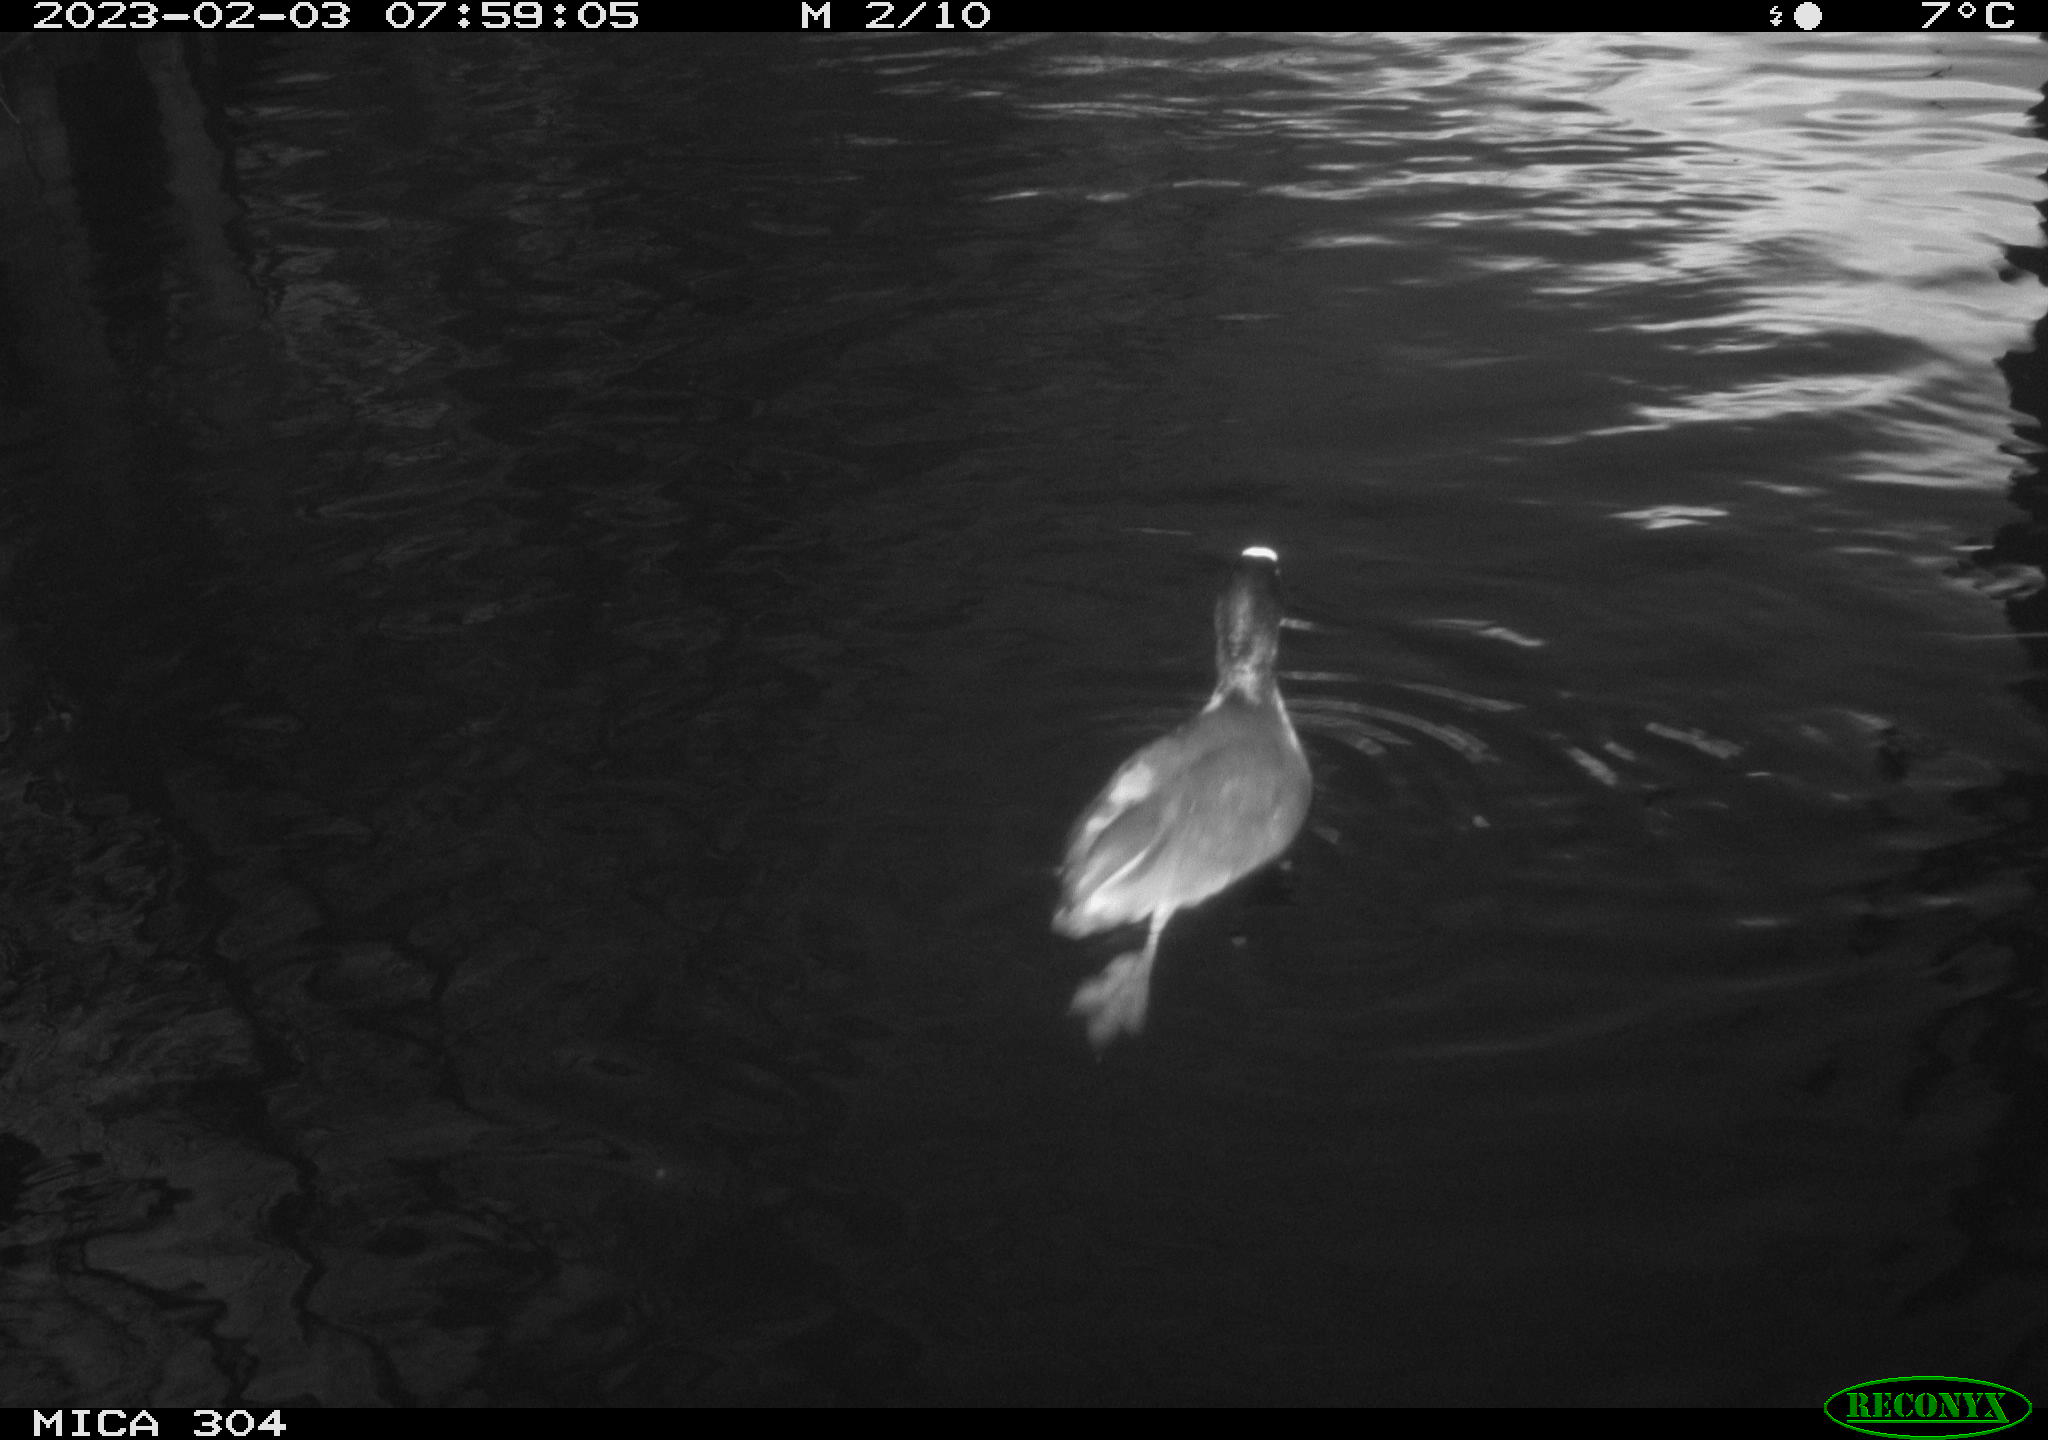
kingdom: Animalia
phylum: Chordata
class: Aves
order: Anseriformes
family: Anatidae
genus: Anas
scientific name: Anas
